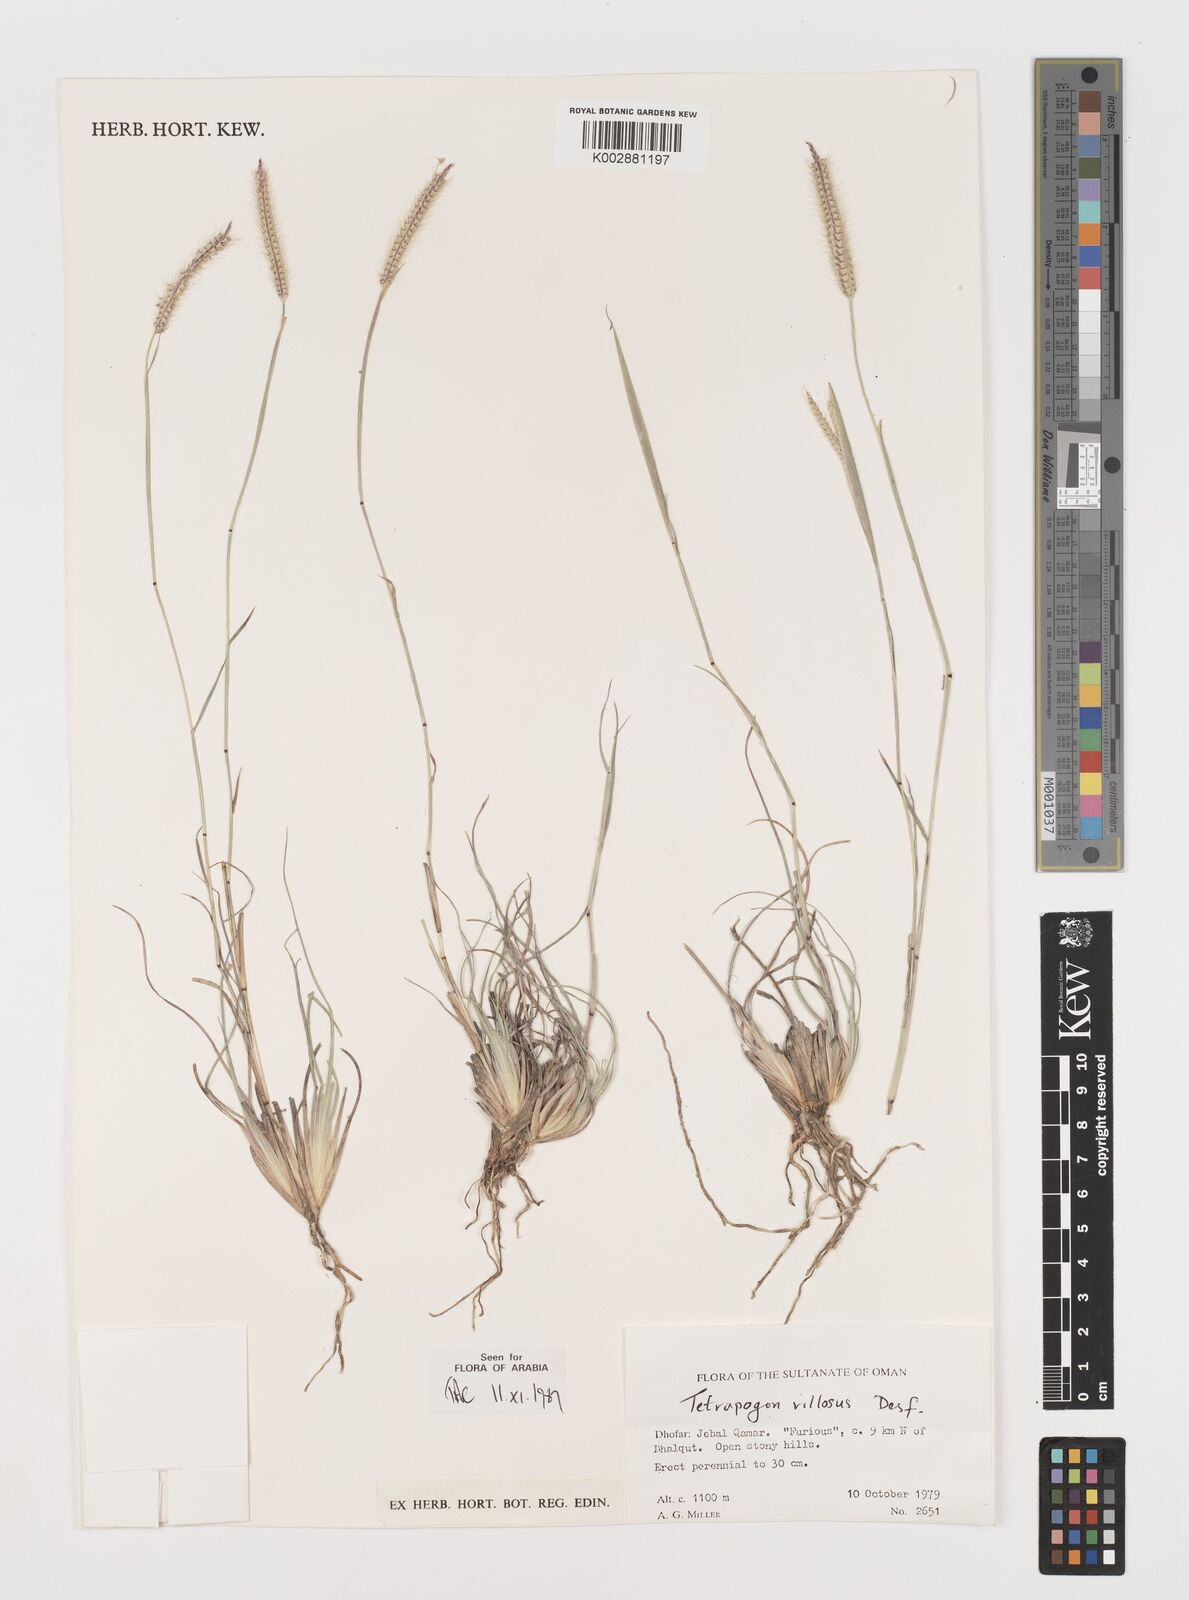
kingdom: Plantae
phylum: Tracheophyta
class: Liliopsida
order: Poales
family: Poaceae
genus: Tetrapogon
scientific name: Tetrapogon villosus
